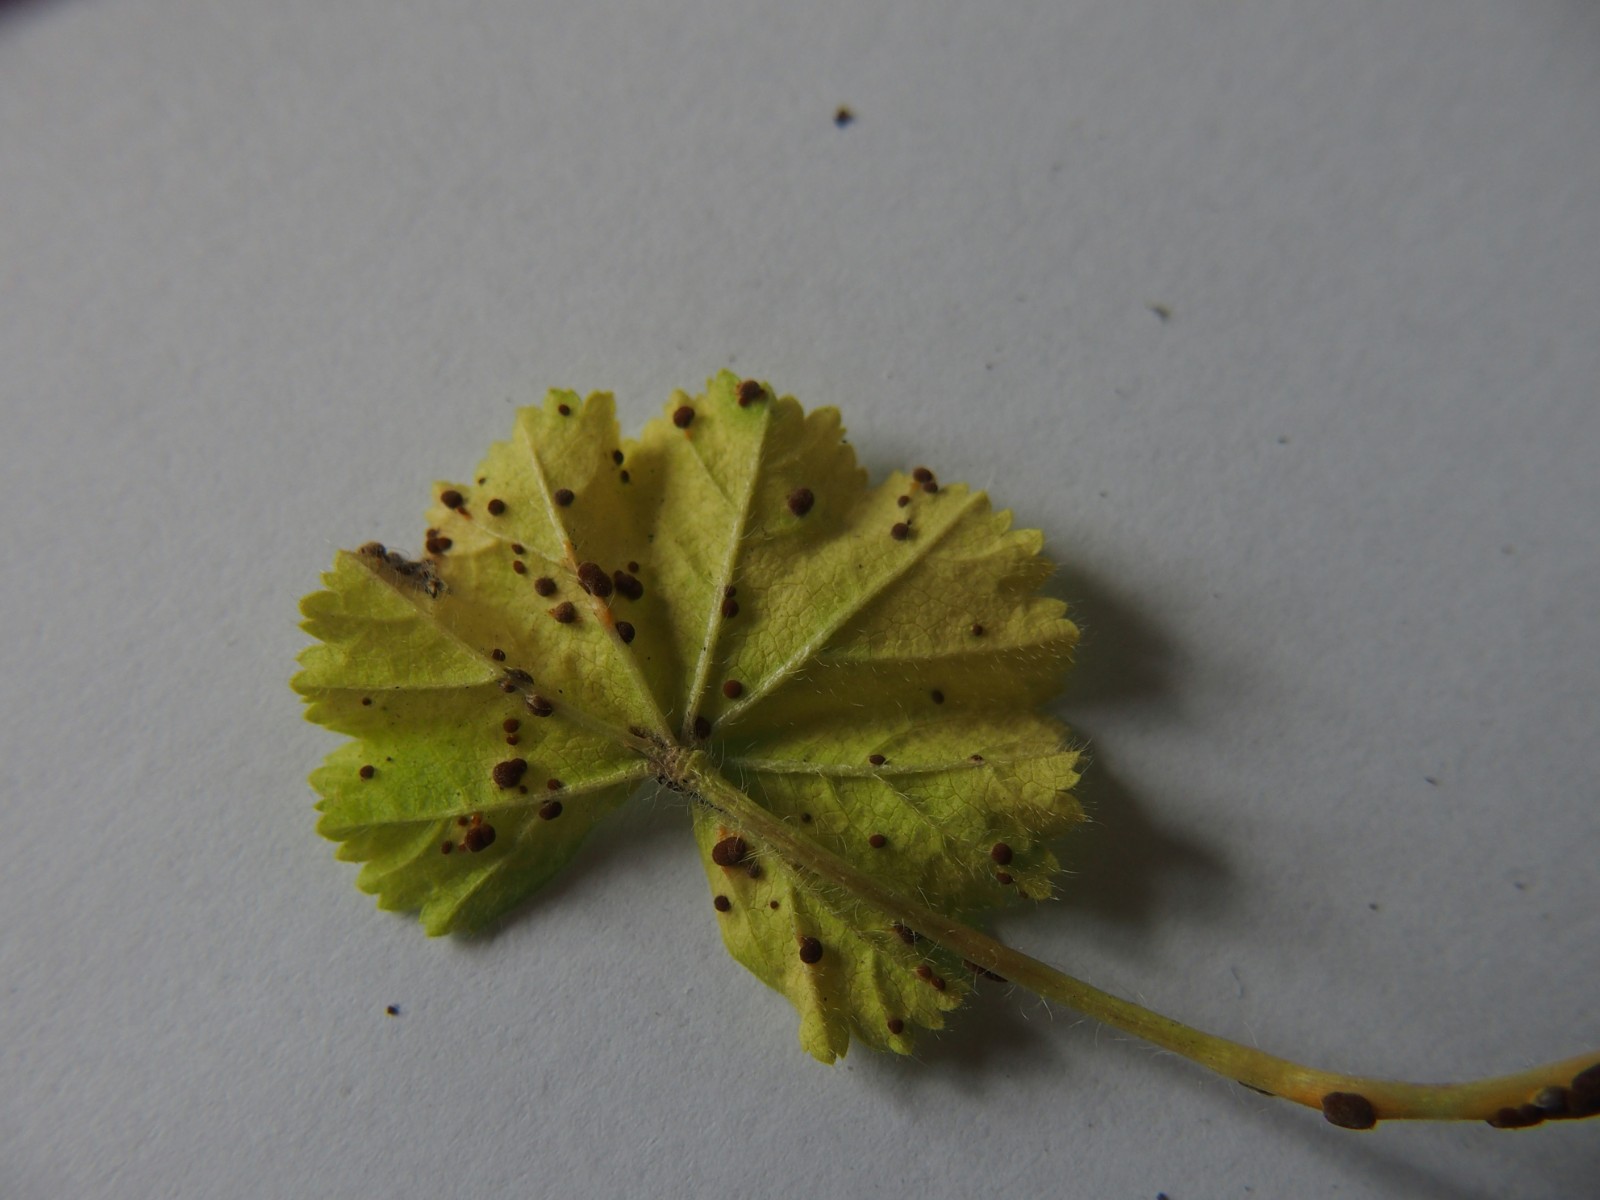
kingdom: Fungi
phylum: Basidiomycota
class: Pucciniomycetes
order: Pucciniales
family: Pucciniaceae
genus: Puccinia
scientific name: Puccinia malvacearum
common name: stokrose-tvecellerust
